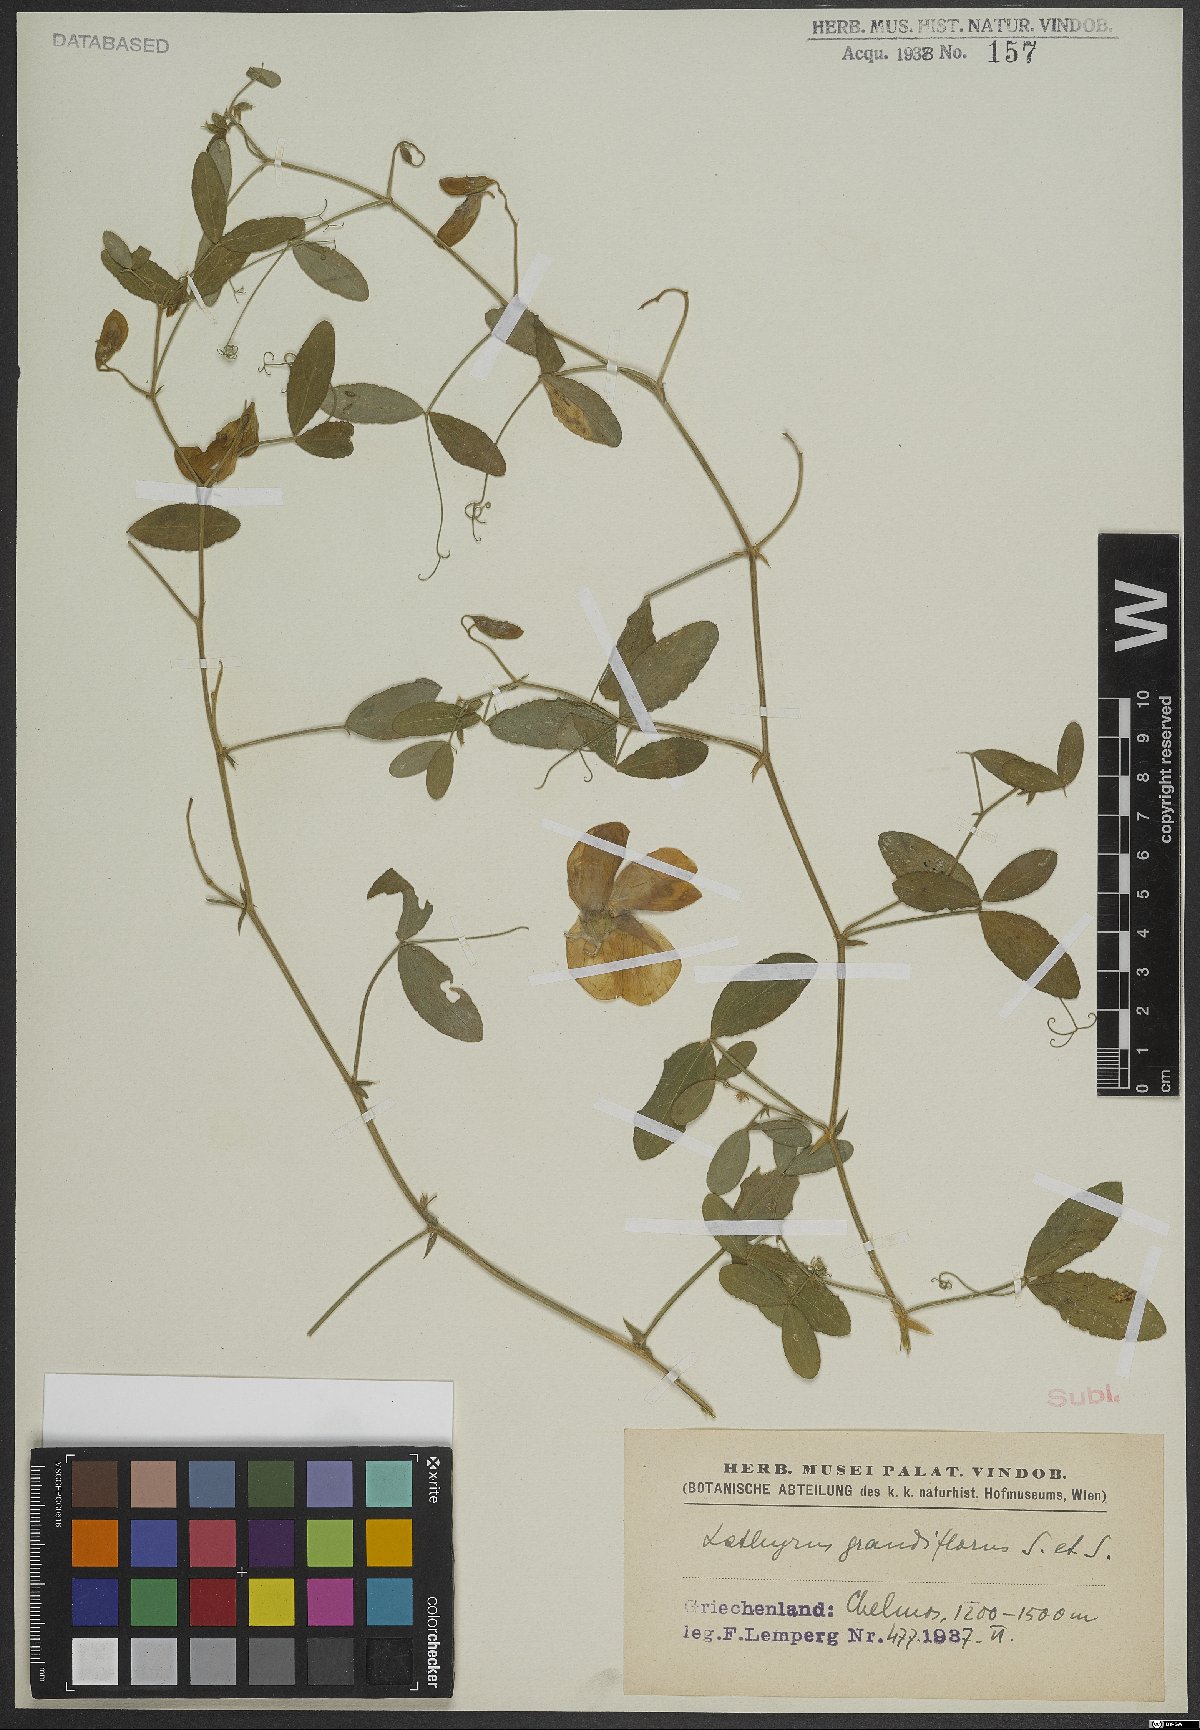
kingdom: Plantae
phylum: Tracheophyta
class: Magnoliopsida
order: Fabales
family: Fabaceae
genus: Lathyrus
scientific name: Lathyrus grandiflorus
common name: Two-flowered everlasting-pea
